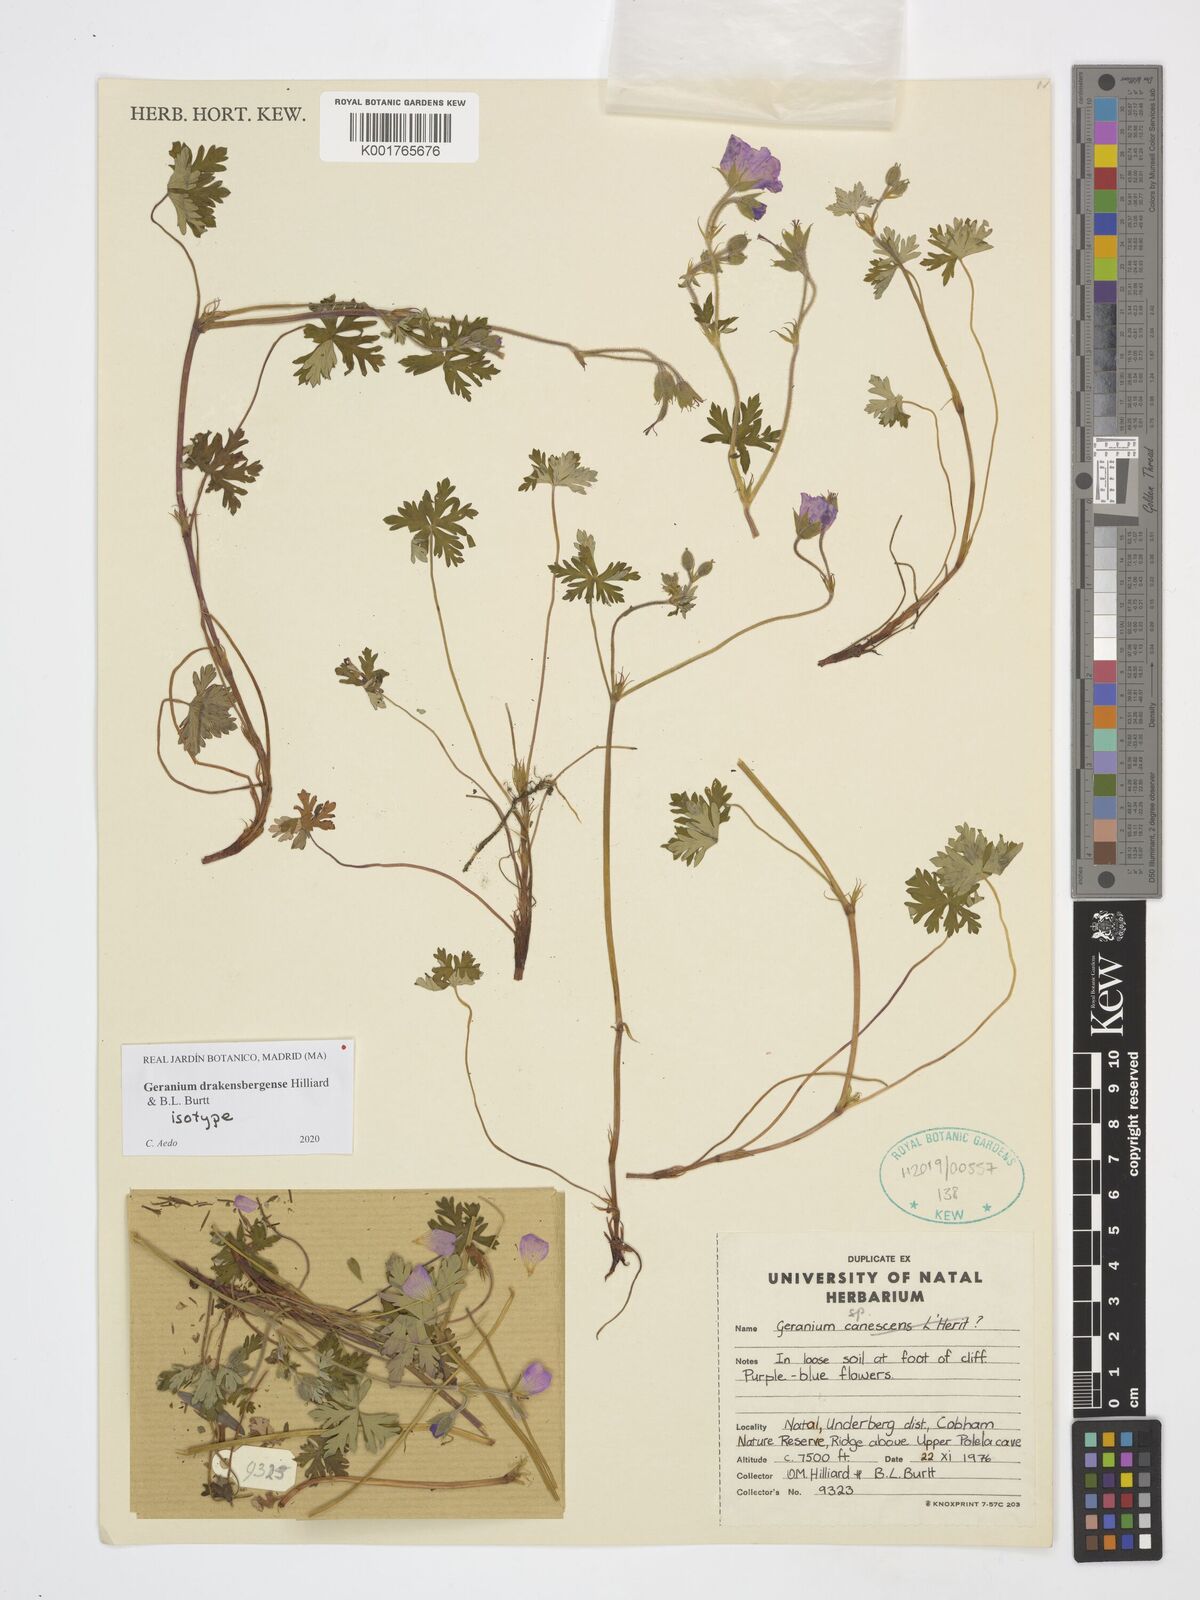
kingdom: Plantae
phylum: Tracheophyta
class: Magnoliopsida
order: Geraniales
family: Geraniaceae
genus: Geranium
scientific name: Geranium drakensbergense
